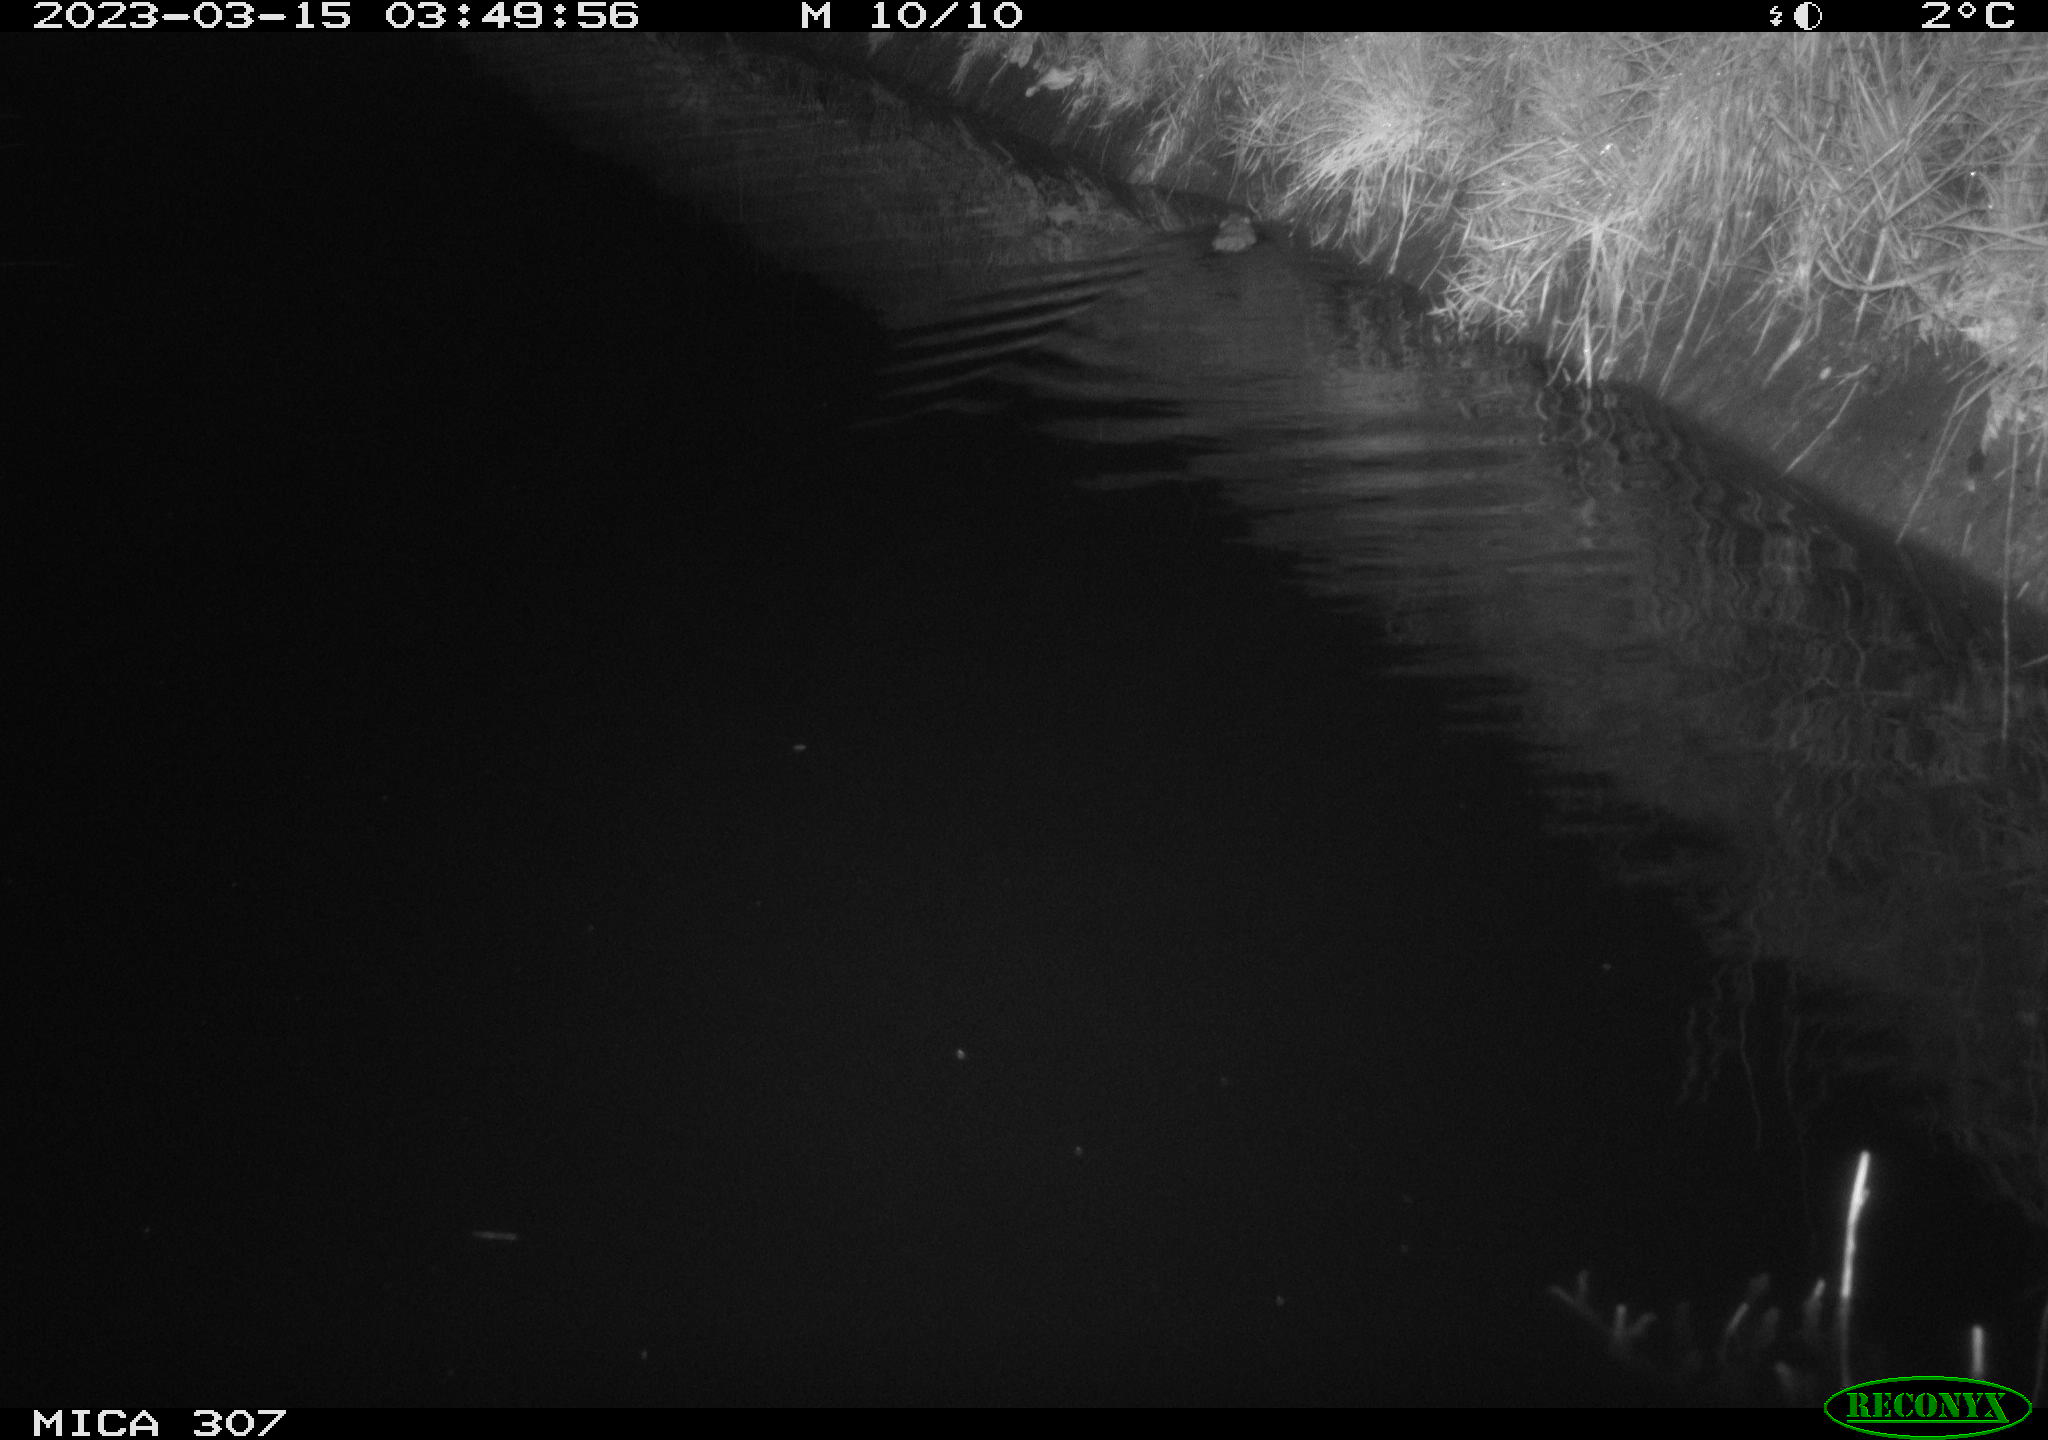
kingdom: Animalia
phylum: Chordata
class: Mammalia
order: Rodentia
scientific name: Rodentia
